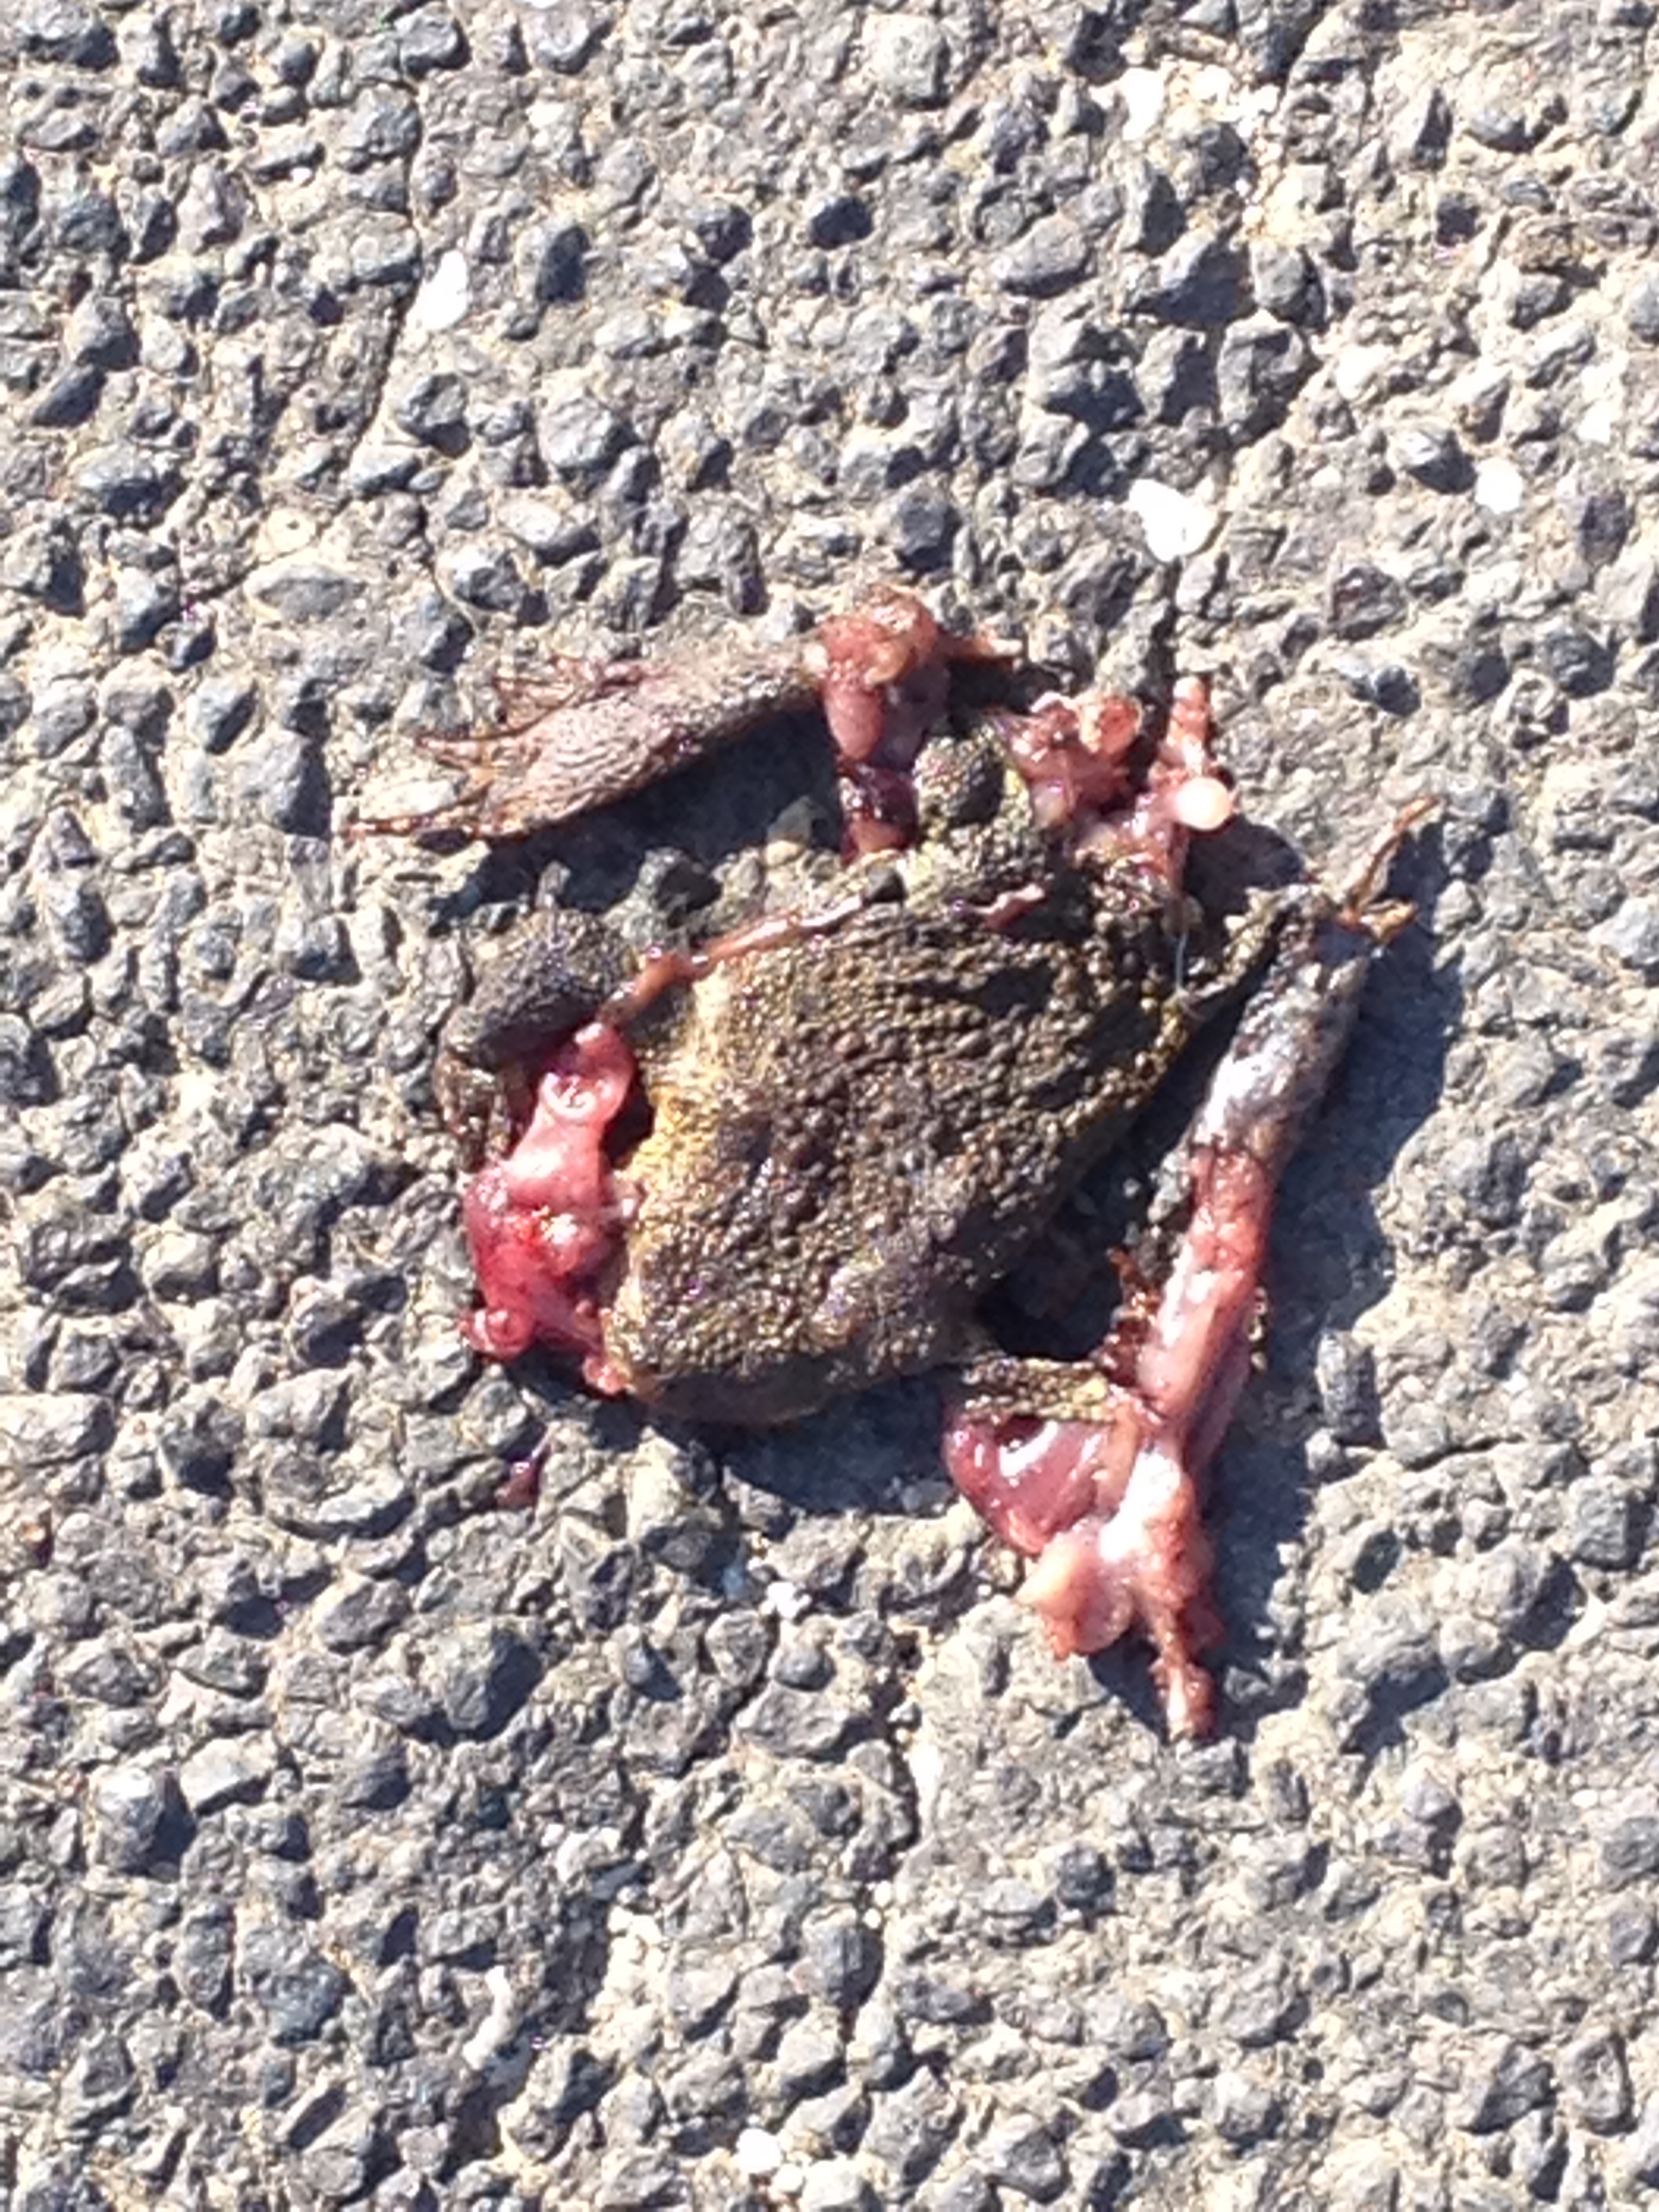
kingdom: Animalia
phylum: Chordata
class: Amphibia
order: Anura
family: Bufonidae
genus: Bufo
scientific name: Bufo bufo
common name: Common toad
